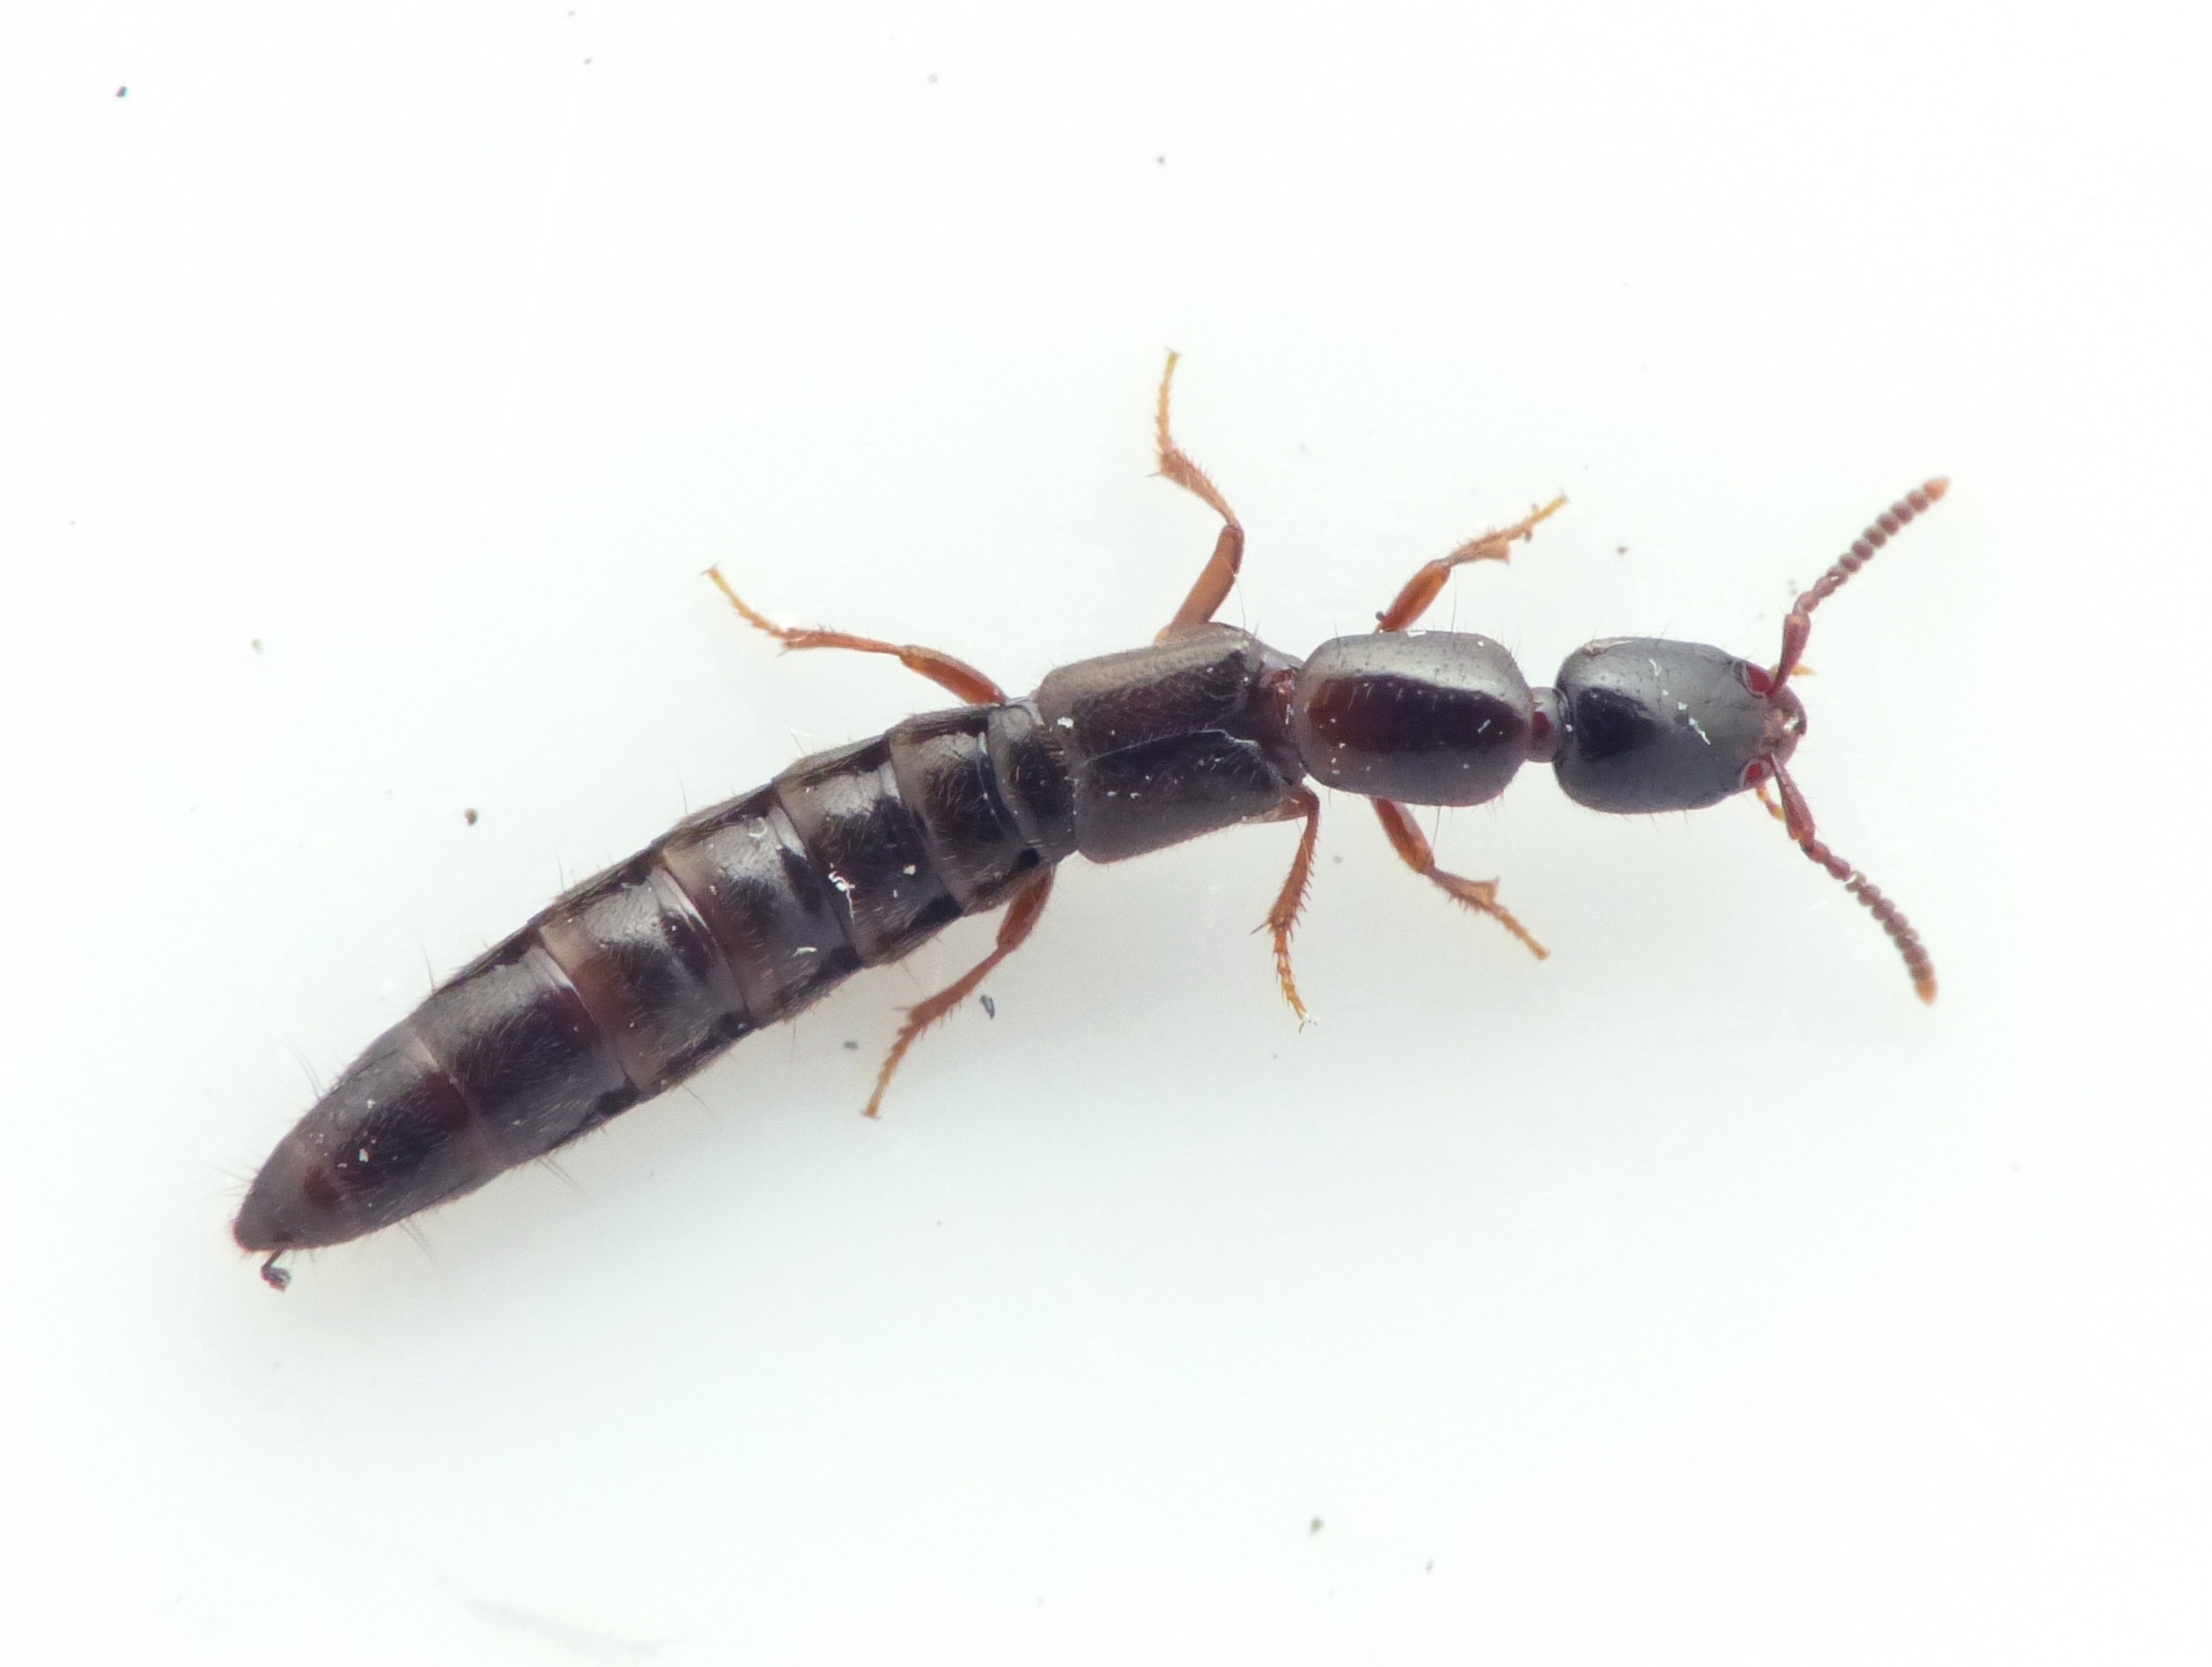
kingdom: Animalia
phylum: Arthropoda
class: Insecta
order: Coleoptera
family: Staphylinidae
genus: Xantholinus
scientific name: Xantholinus linearis
